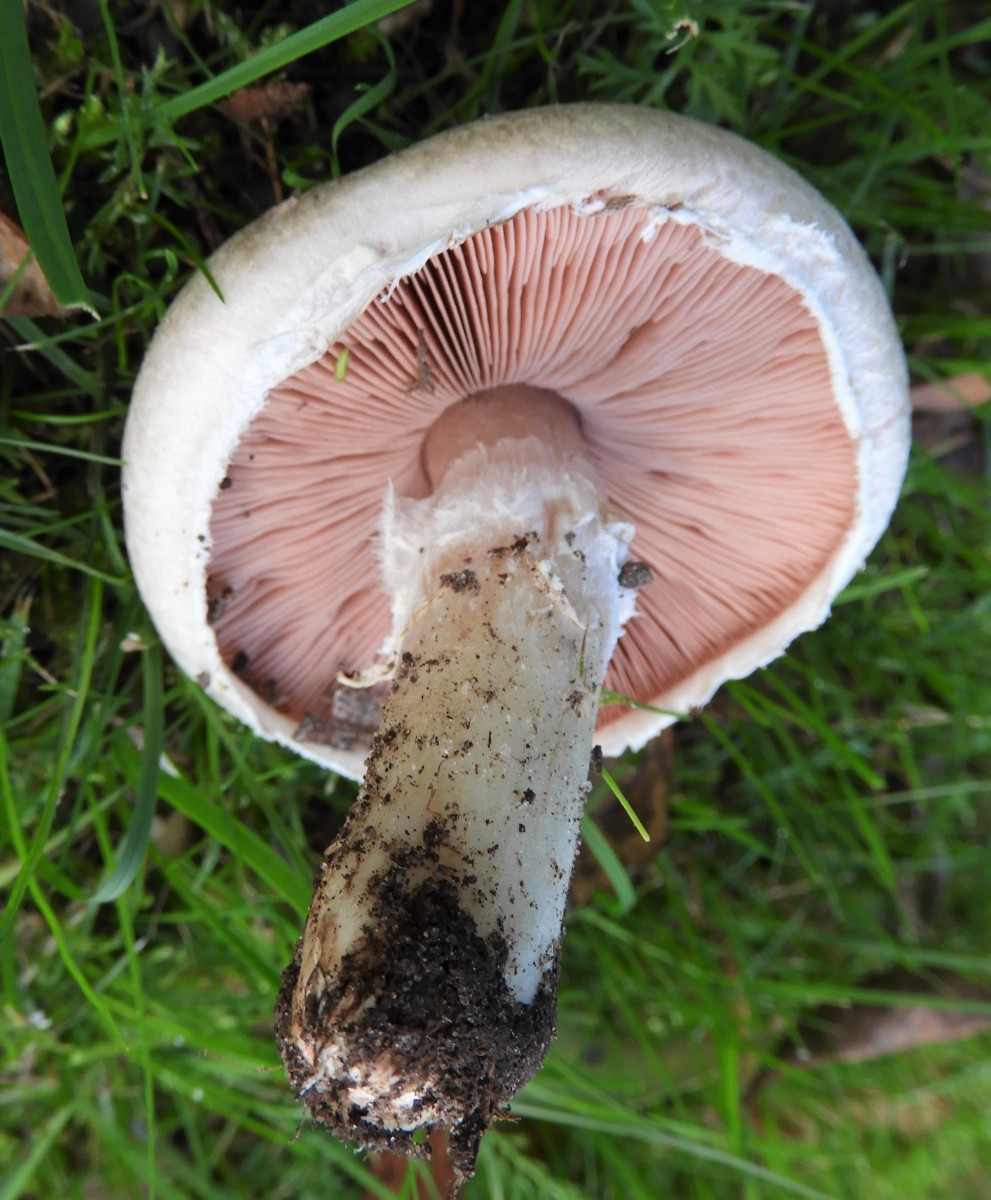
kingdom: Fungi
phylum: Basidiomycota
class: Agaricomycetes
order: Agaricales
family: Agaricaceae
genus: Agaricus
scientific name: Agaricus campestris
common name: mark-champignon
